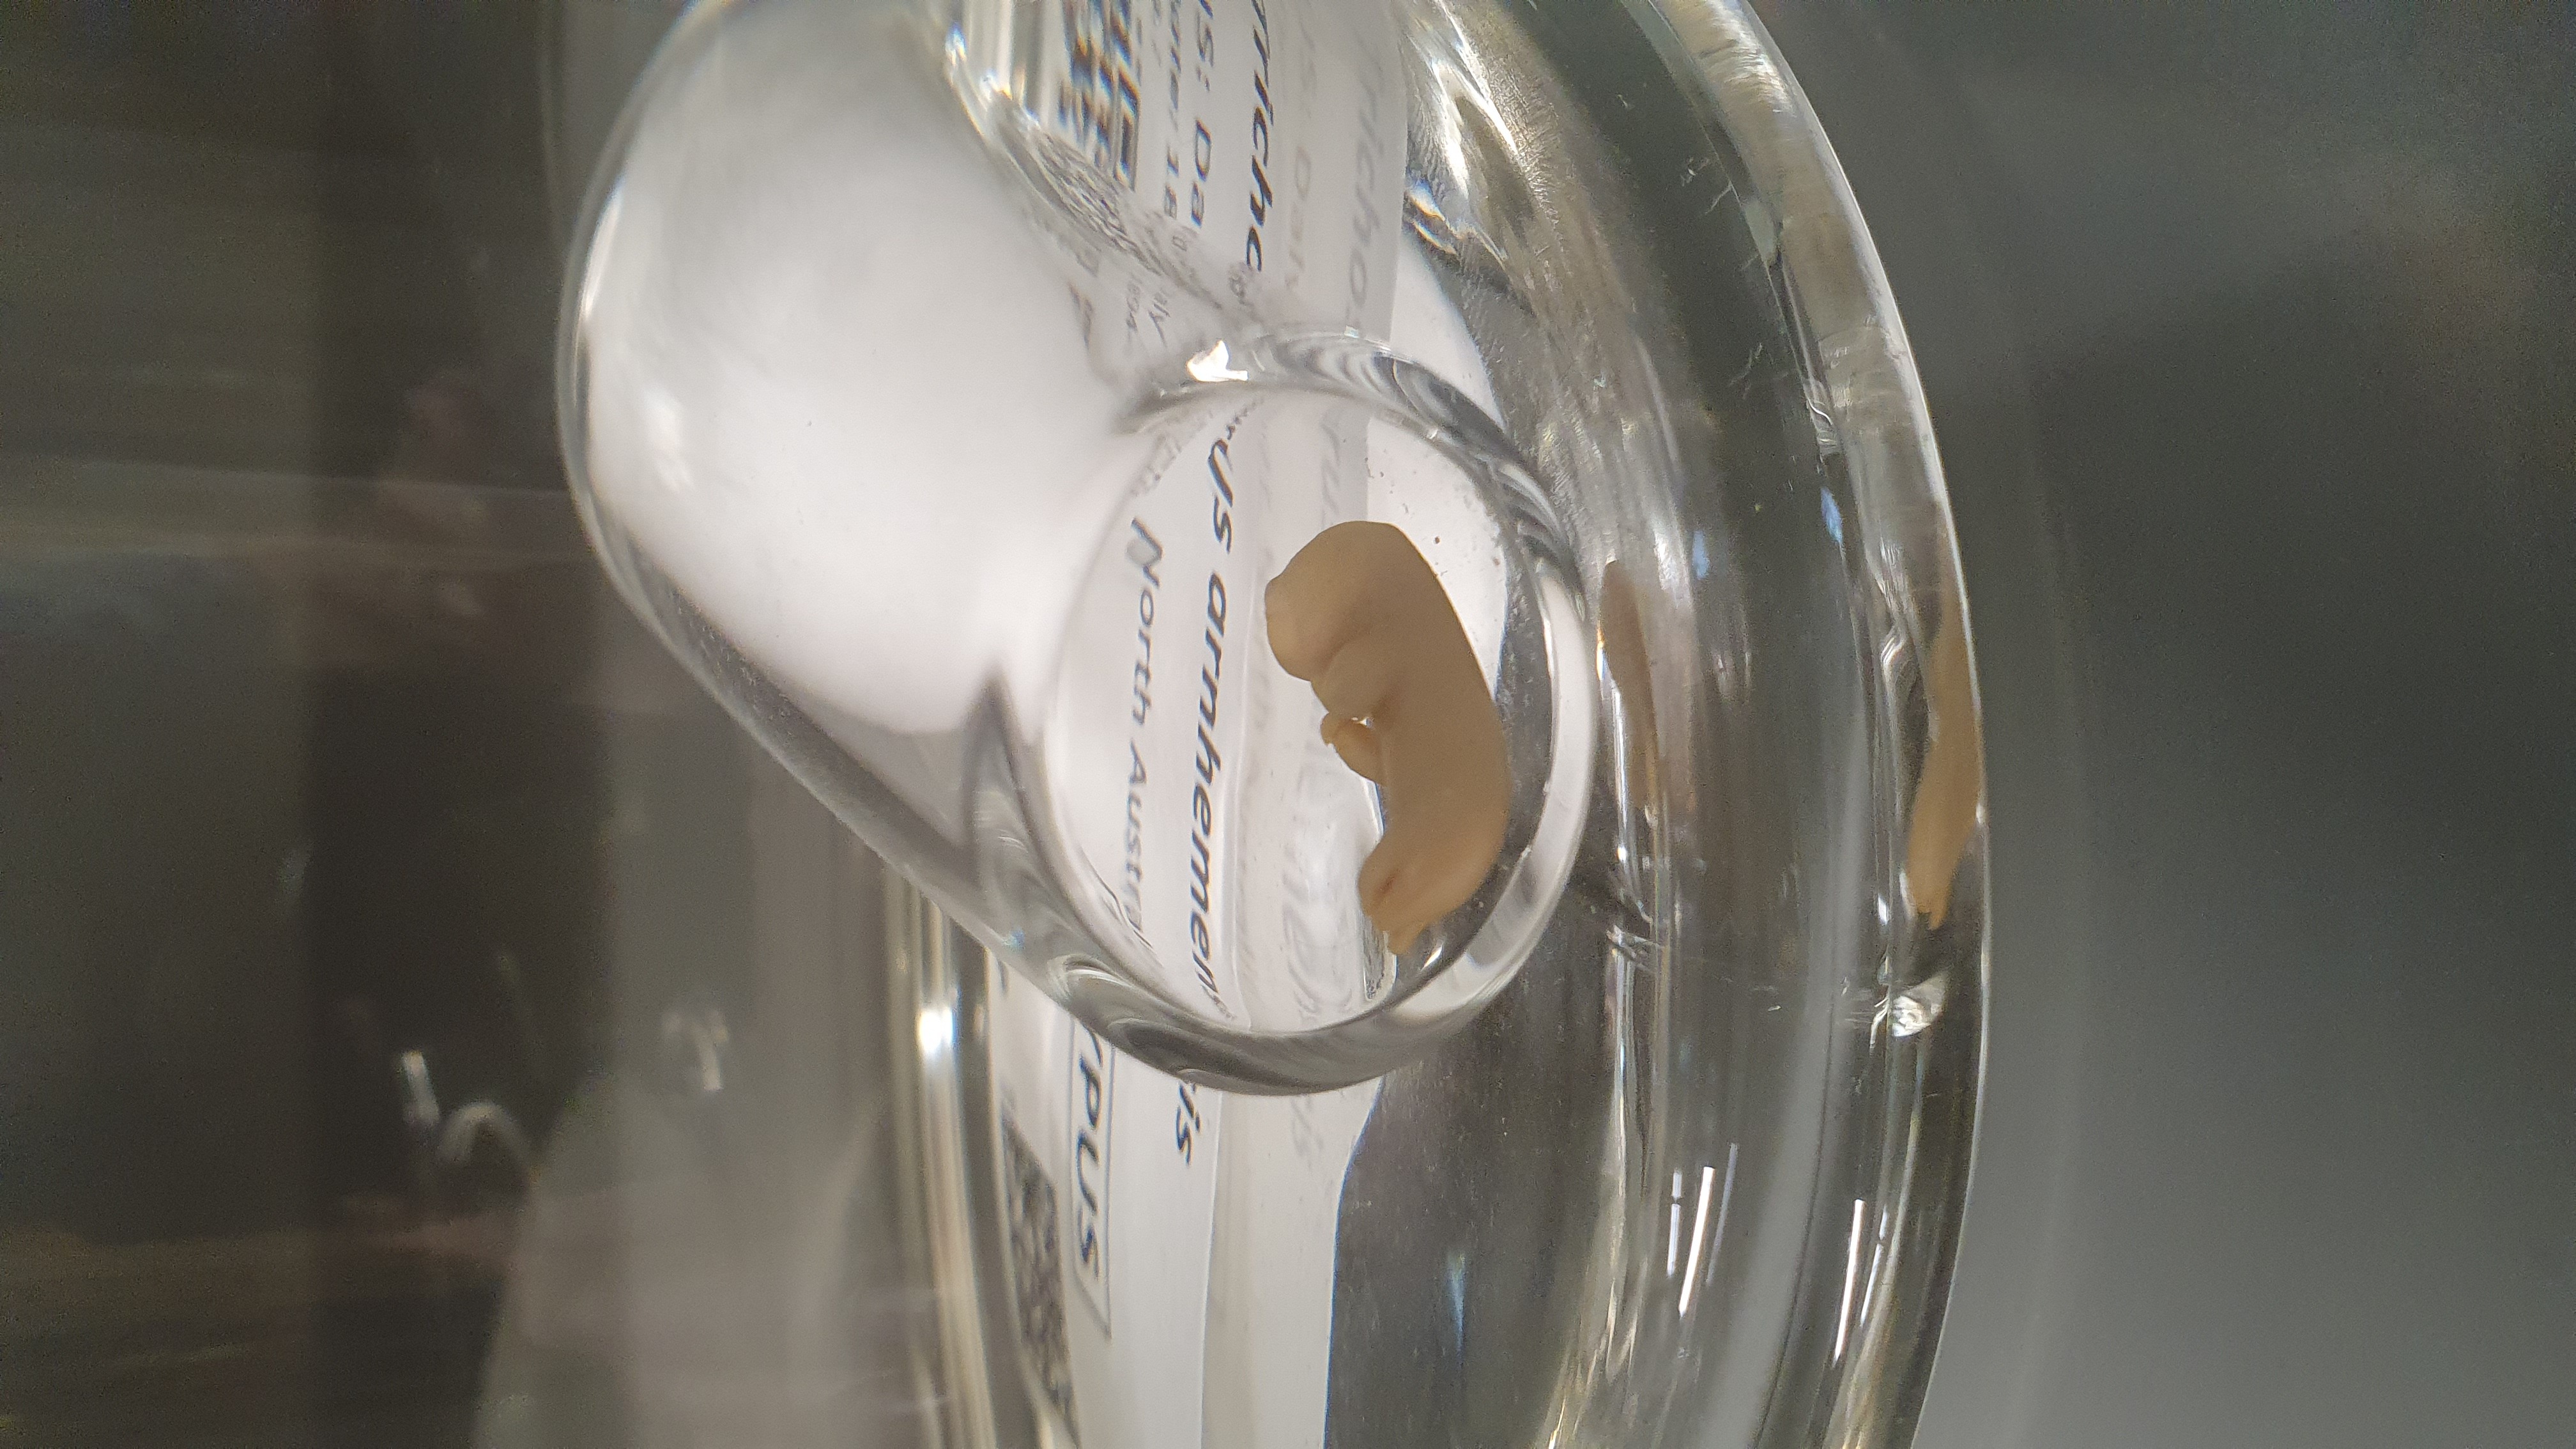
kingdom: Animalia
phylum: Chordata
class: Mammalia
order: Diprotodontia
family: Phalangeridae
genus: Trichosurus
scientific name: Trichosurus arnhemensis
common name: Northern brushtail
